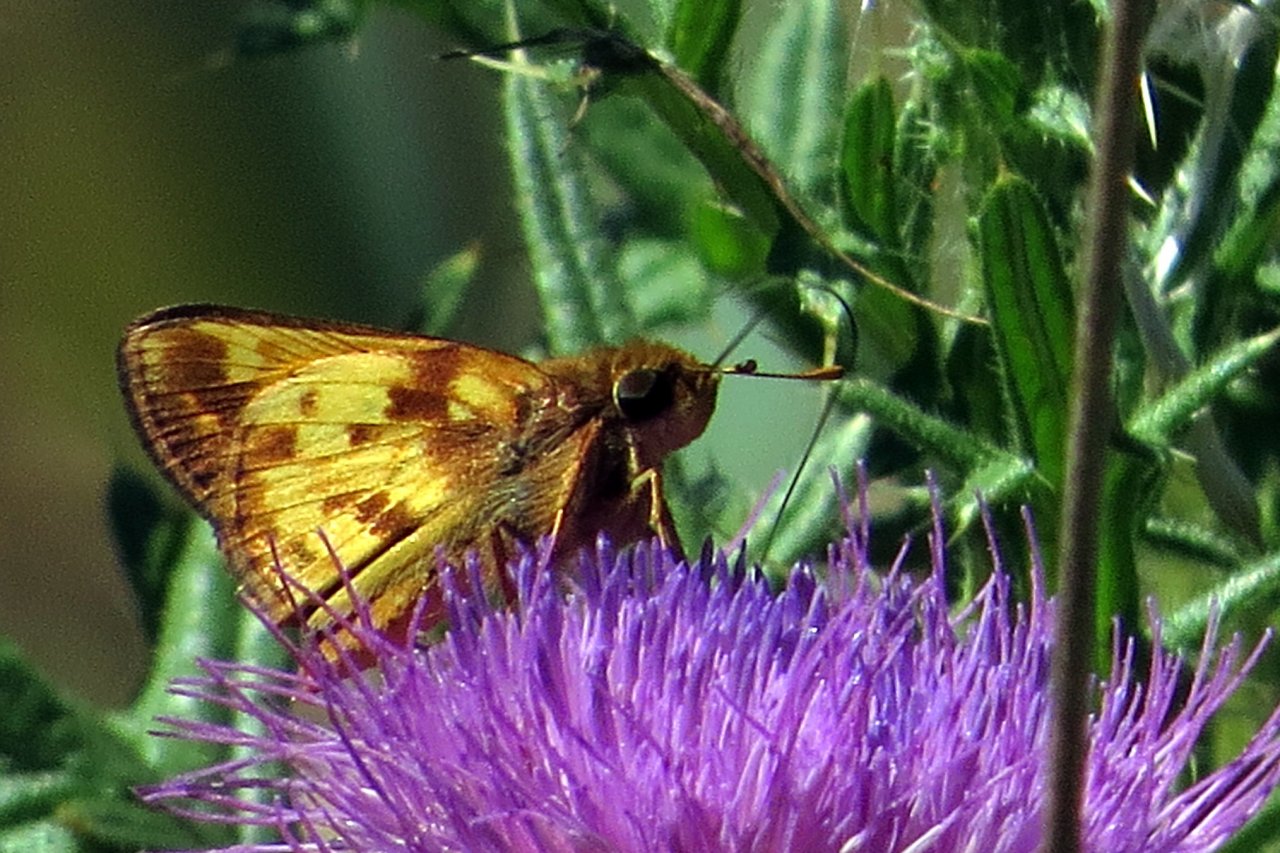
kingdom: Animalia
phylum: Arthropoda
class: Insecta
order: Lepidoptera
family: Hesperiidae
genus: Lon
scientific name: Lon zabulon
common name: Zabulon Skipper
